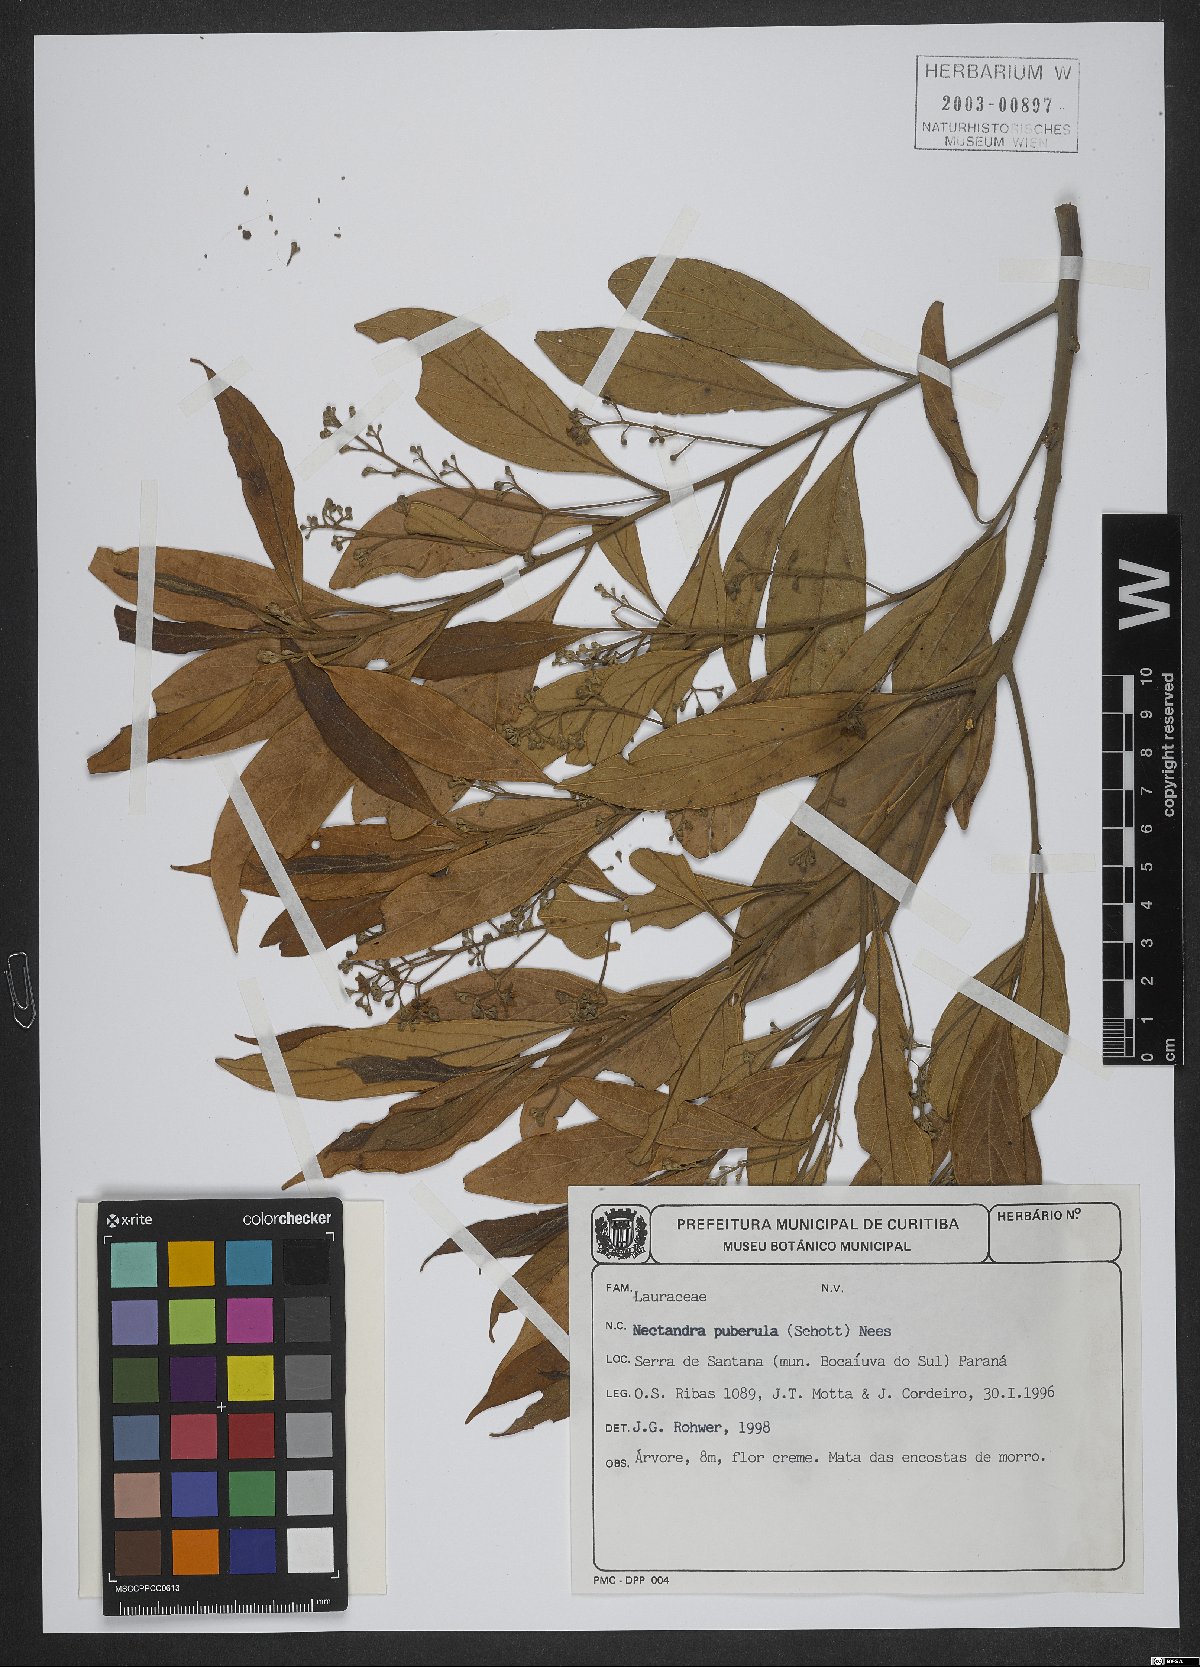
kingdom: Plantae
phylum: Tracheophyta
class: Magnoliopsida
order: Laurales
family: Lauraceae
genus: Nectandra
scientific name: Nectandra puberula
